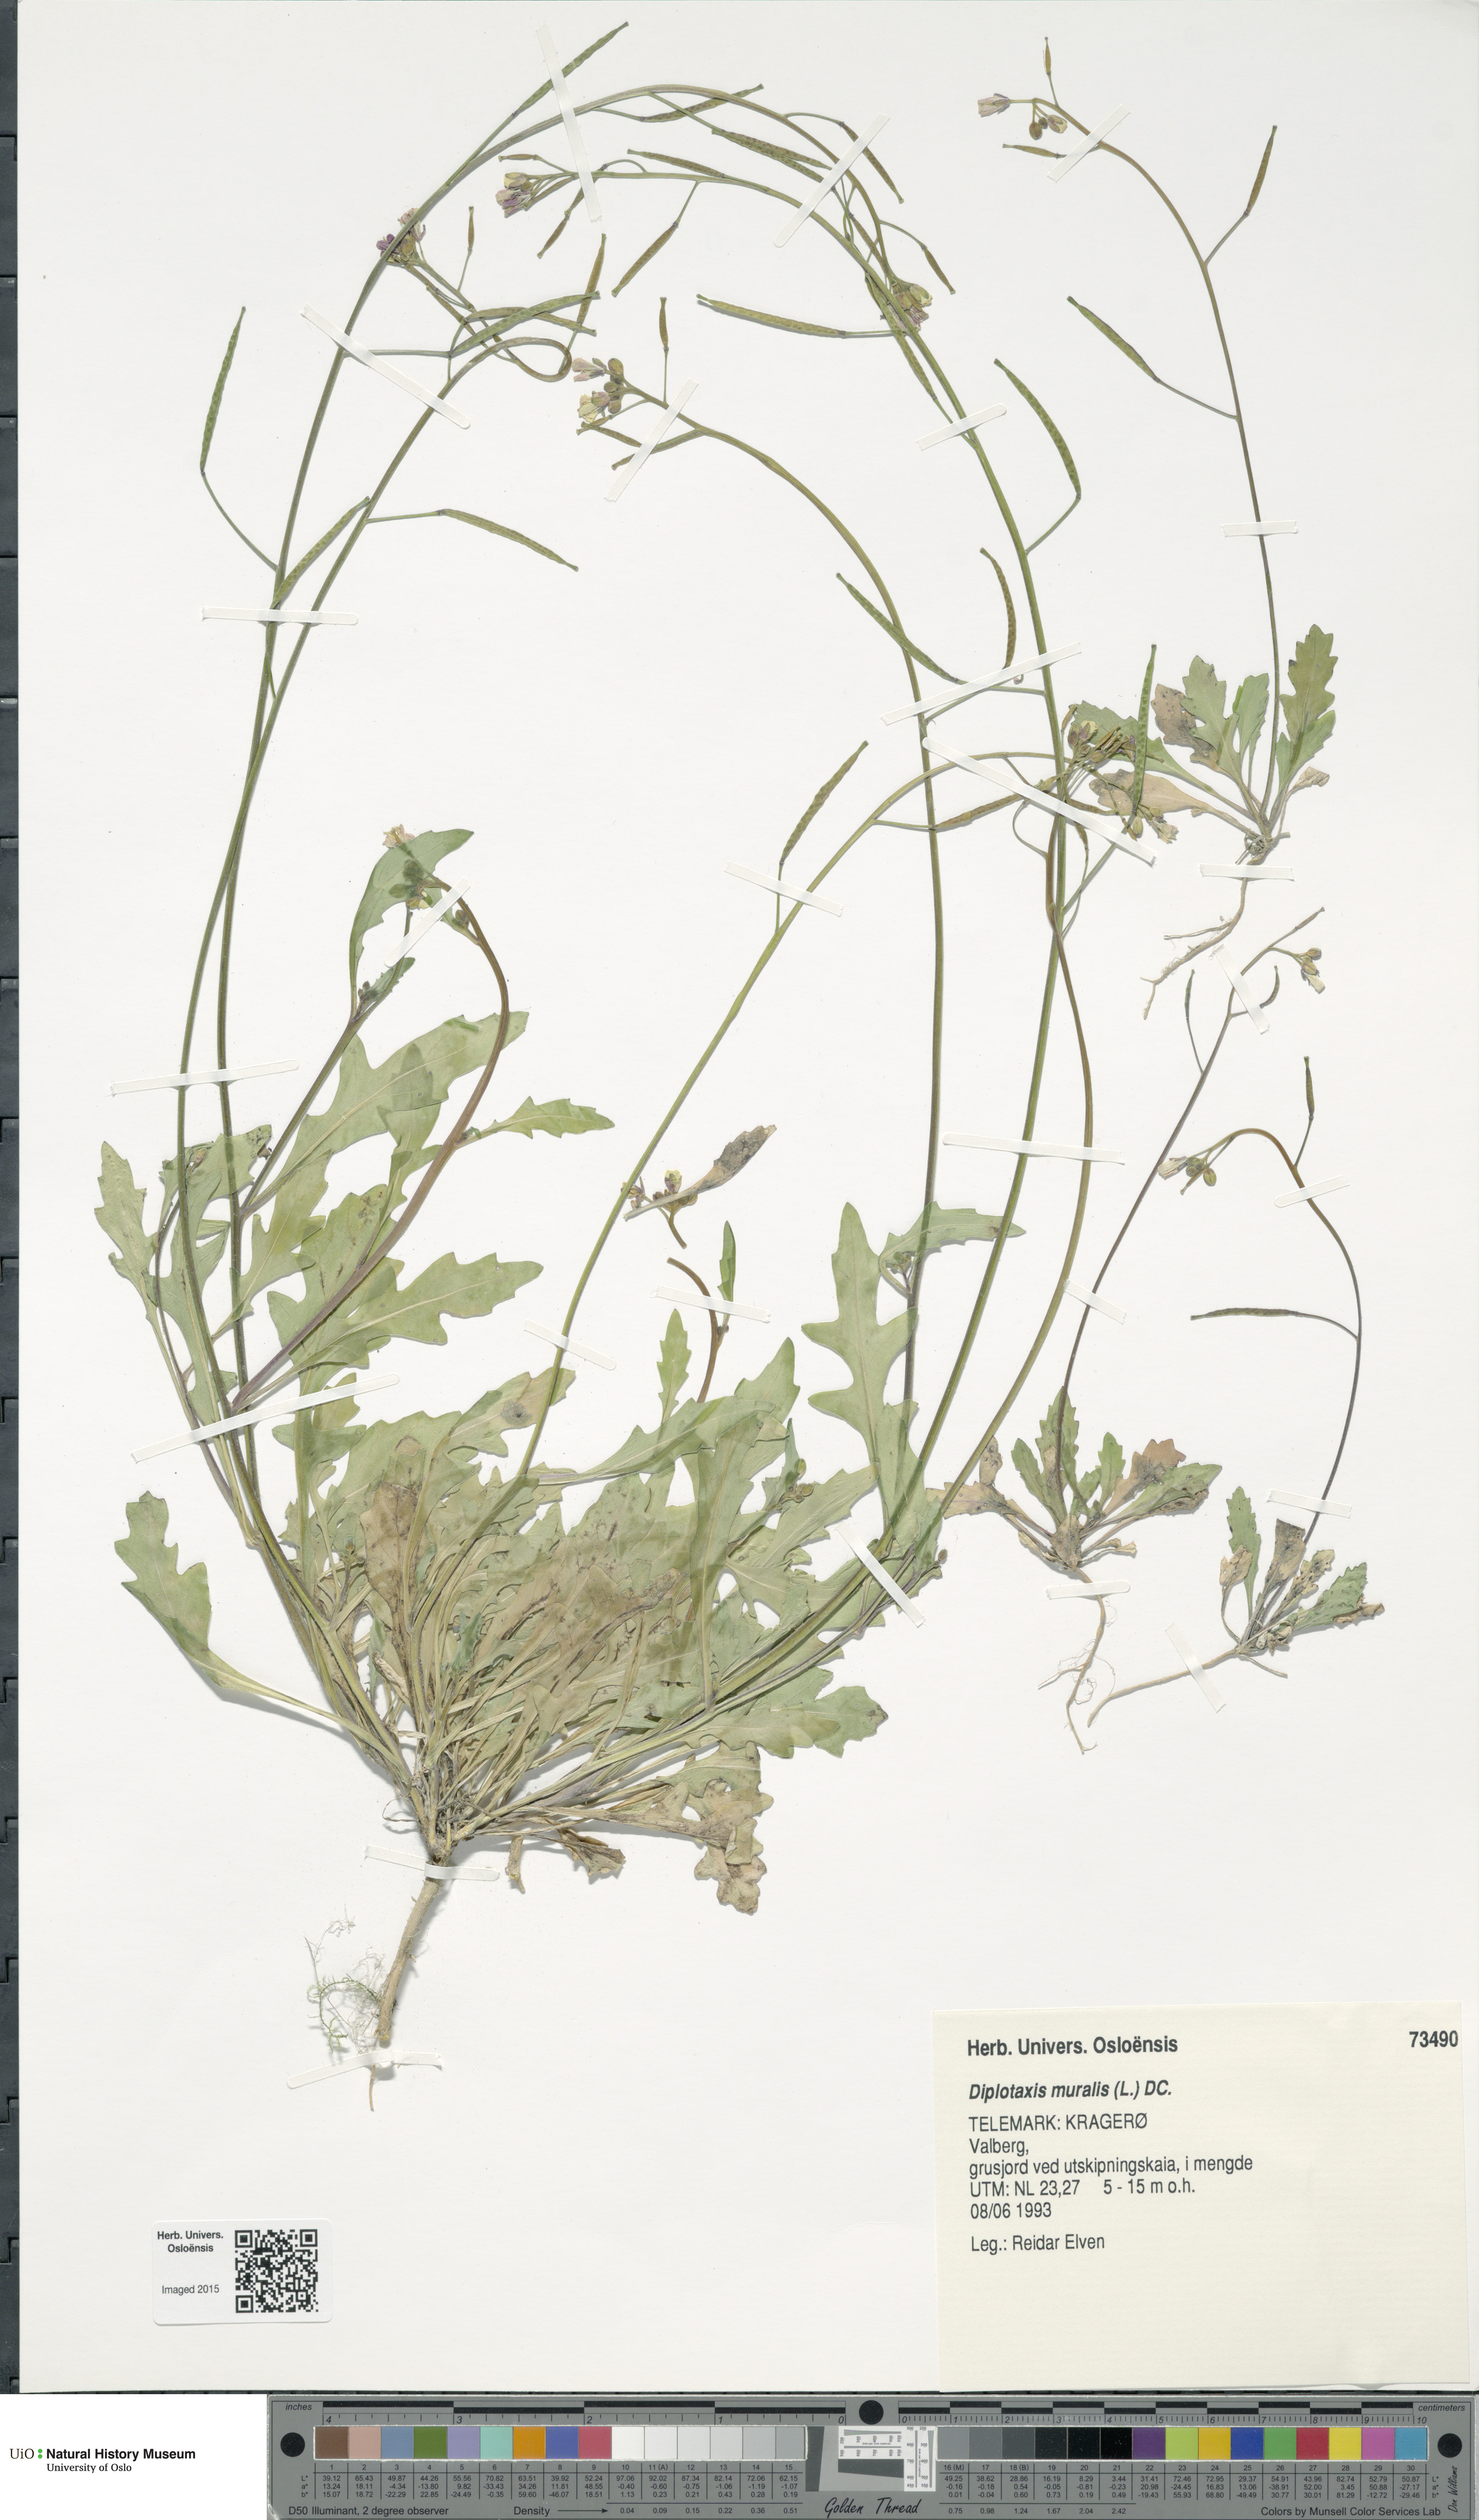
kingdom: Plantae
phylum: Tracheophyta
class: Magnoliopsida
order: Brassicales
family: Brassicaceae
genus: Diplotaxis
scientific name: Diplotaxis muralis
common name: Annual wall-rocket
